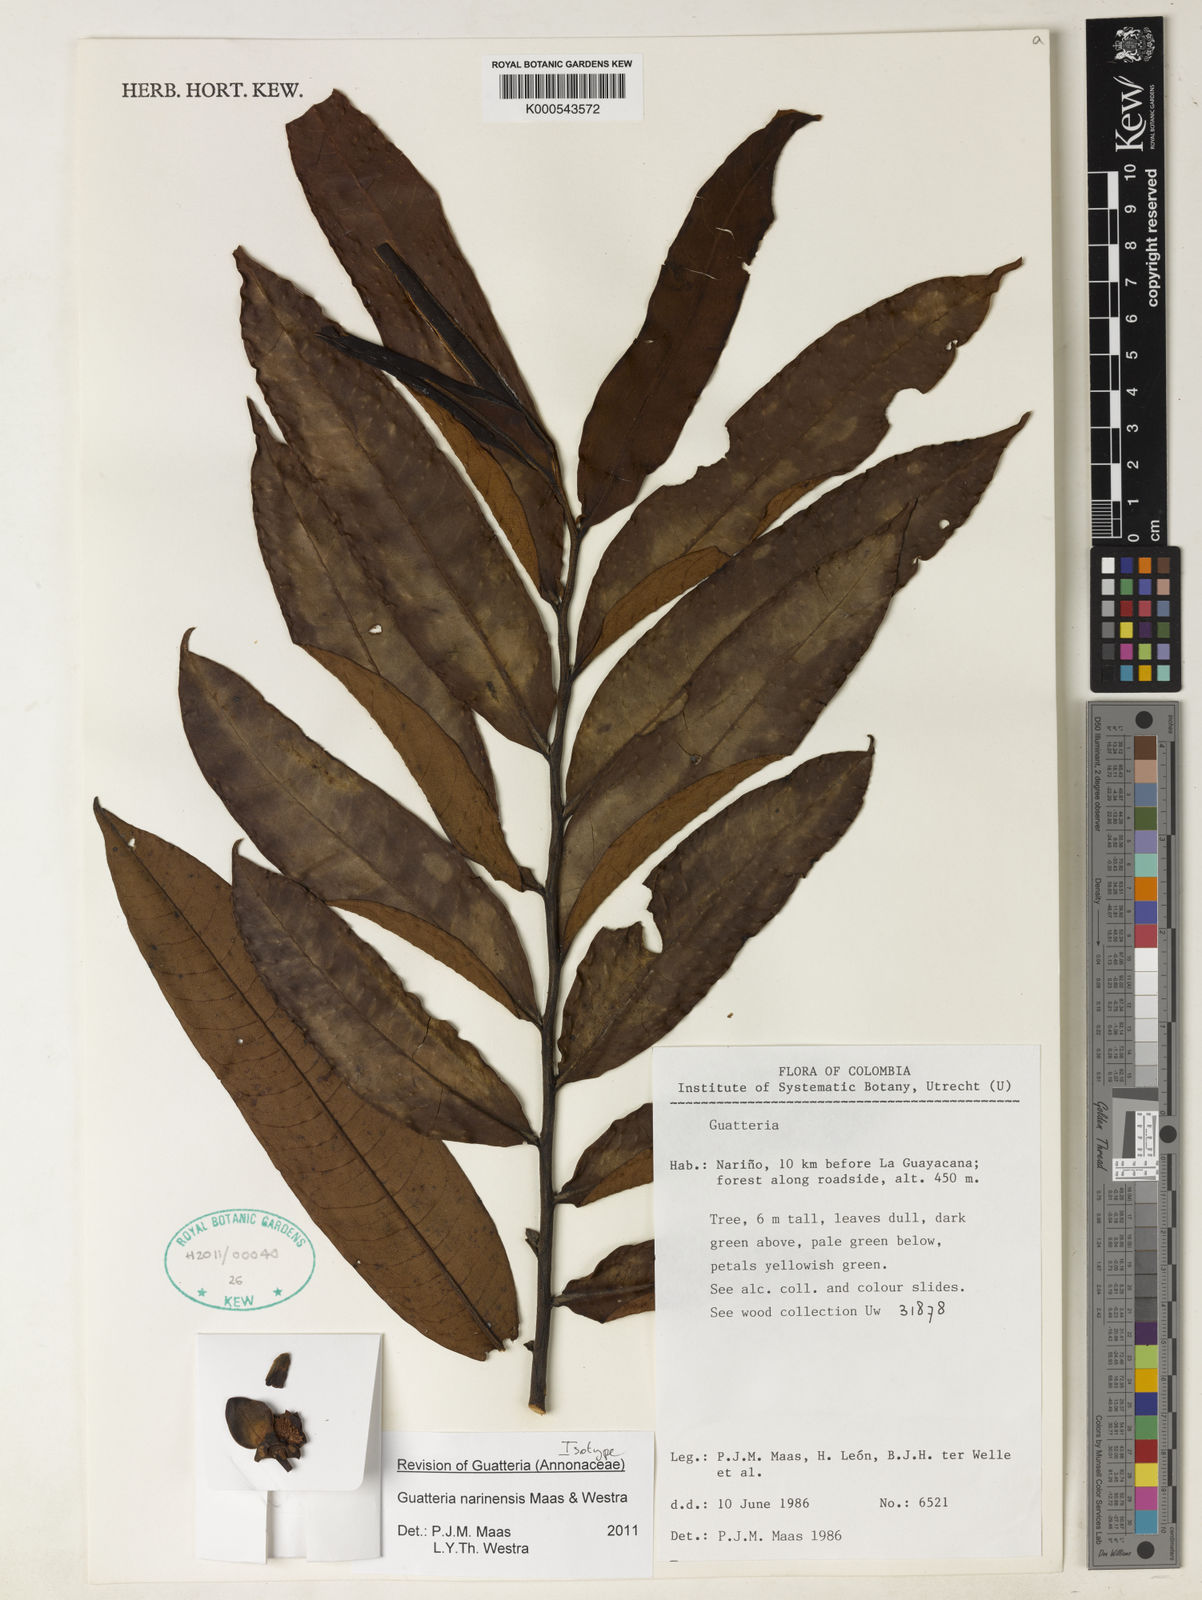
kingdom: Plantae
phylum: Tracheophyta
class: Magnoliopsida
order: Magnoliales
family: Annonaceae
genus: Guatteria
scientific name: Guatteria narinensis
